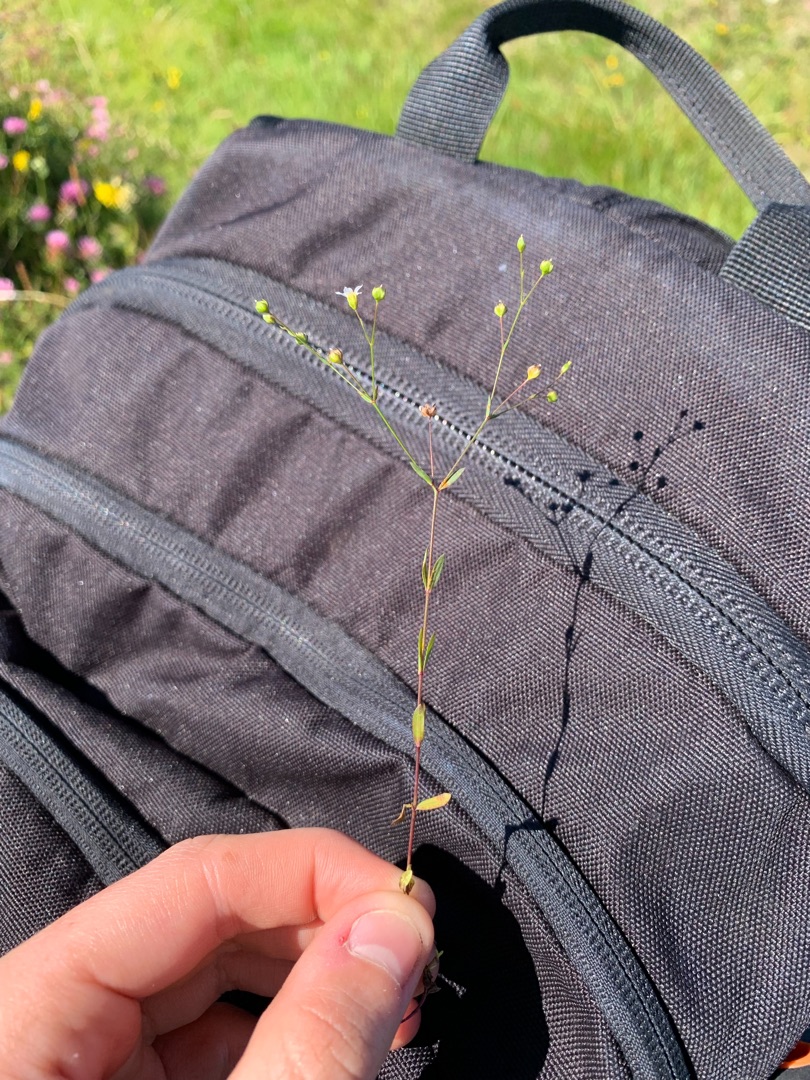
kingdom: Plantae
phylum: Tracheophyta
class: Magnoliopsida
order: Malpighiales
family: Linaceae
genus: Linum
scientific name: Linum catharticum
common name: Vild hør
